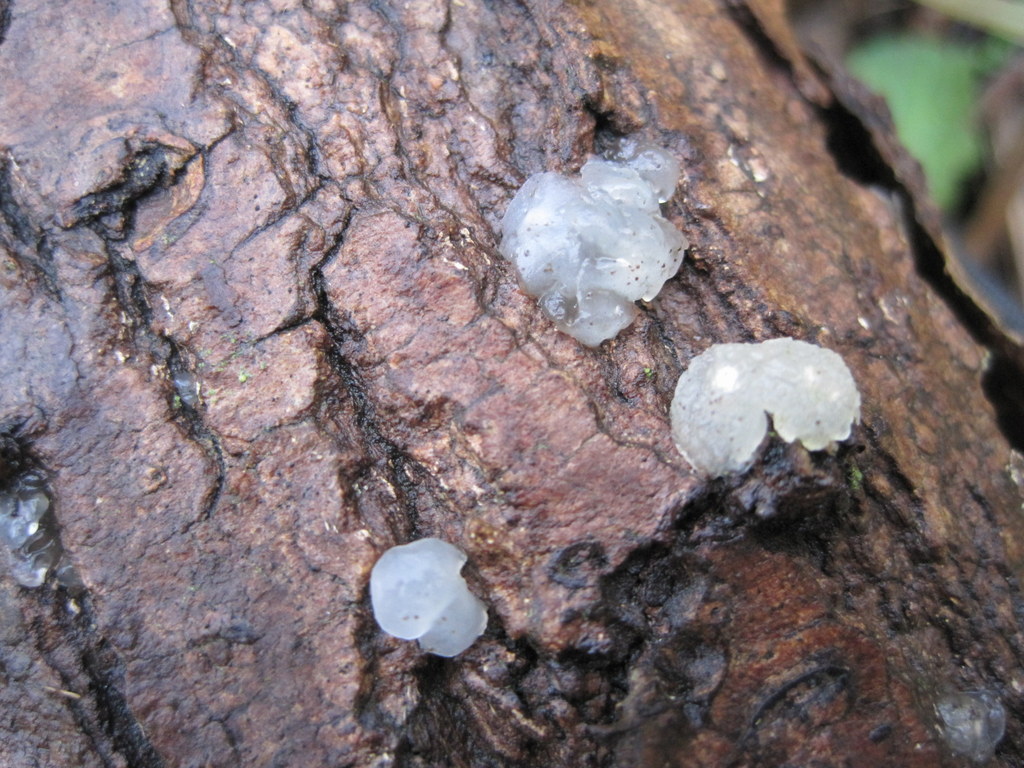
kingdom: Fungi
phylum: Basidiomycota
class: Agaricomycetes
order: Auriculariales
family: Hyaloriaceae
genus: Myxarium
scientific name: Myxarium nucleatum
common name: klar bævretop
